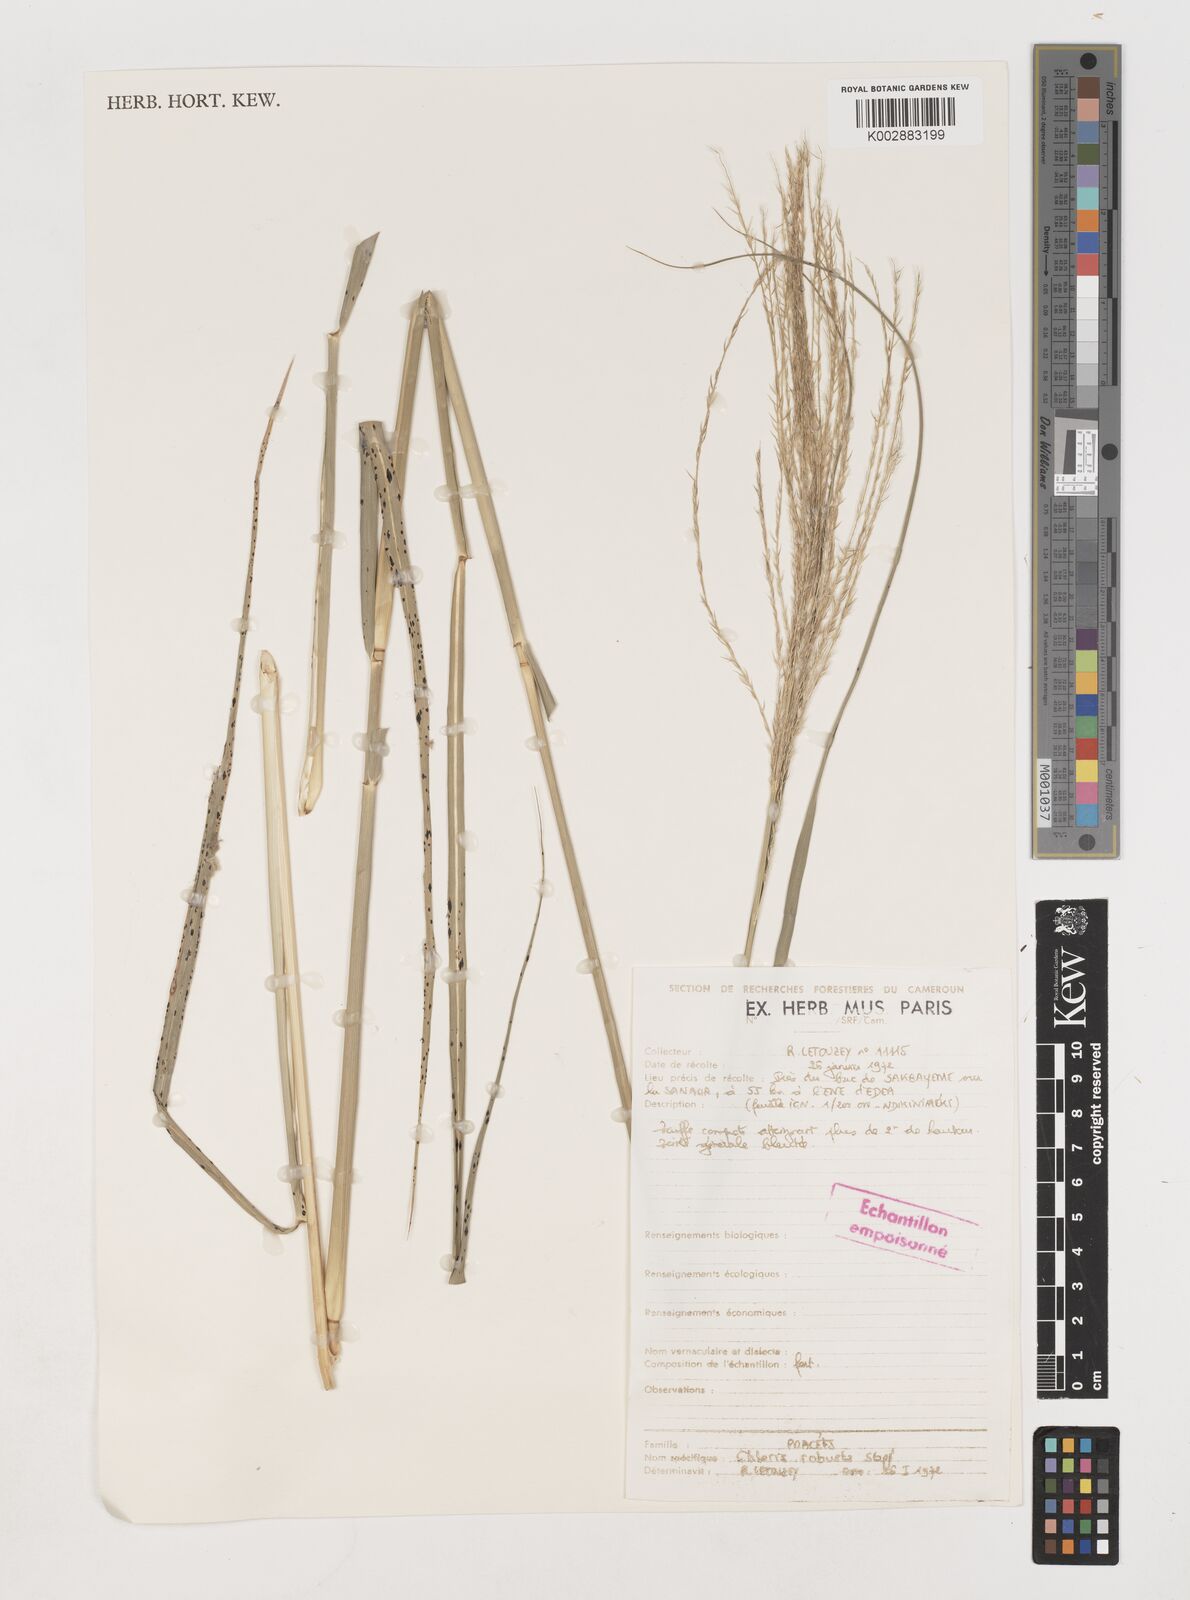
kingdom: Plantae
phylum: Tracheophyta
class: Liliopsida
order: Poales
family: Poaceae
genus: Chloris
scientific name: Chloris robusta
